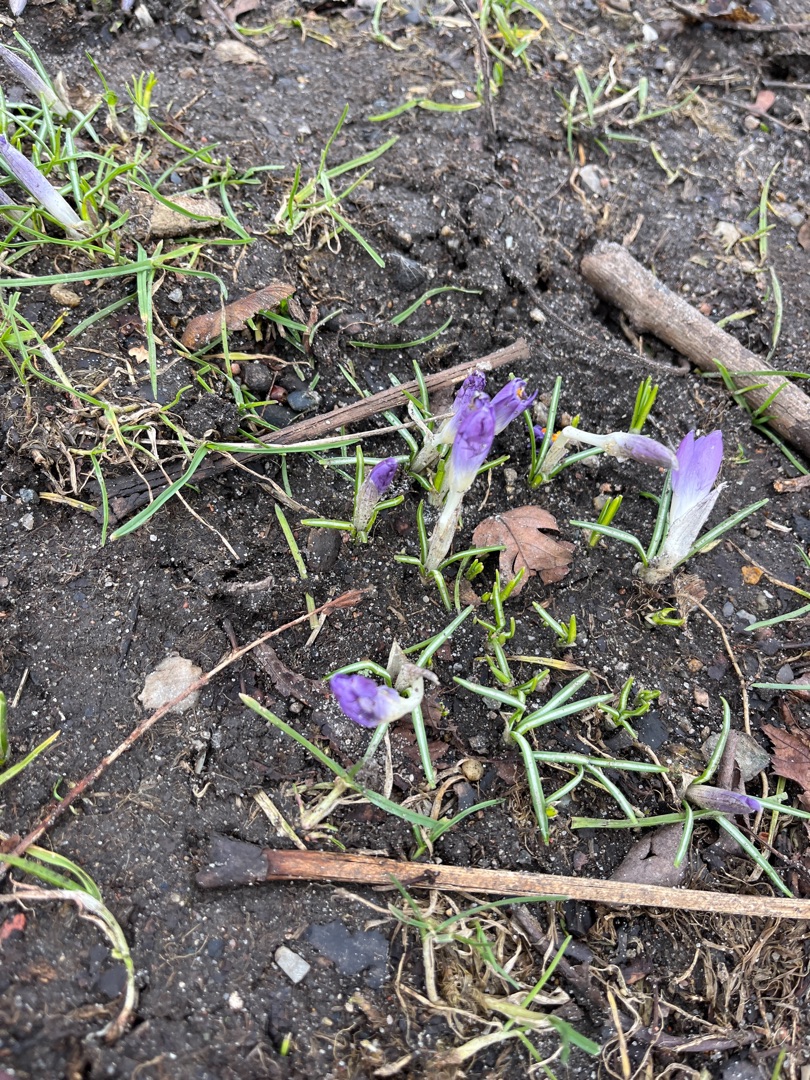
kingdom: Plantae
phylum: Tracheophyta
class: Liliopsida
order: Asparagales
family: Iridaceae
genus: Crocus
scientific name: Crocus tommasinianus
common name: Sne-krokus
